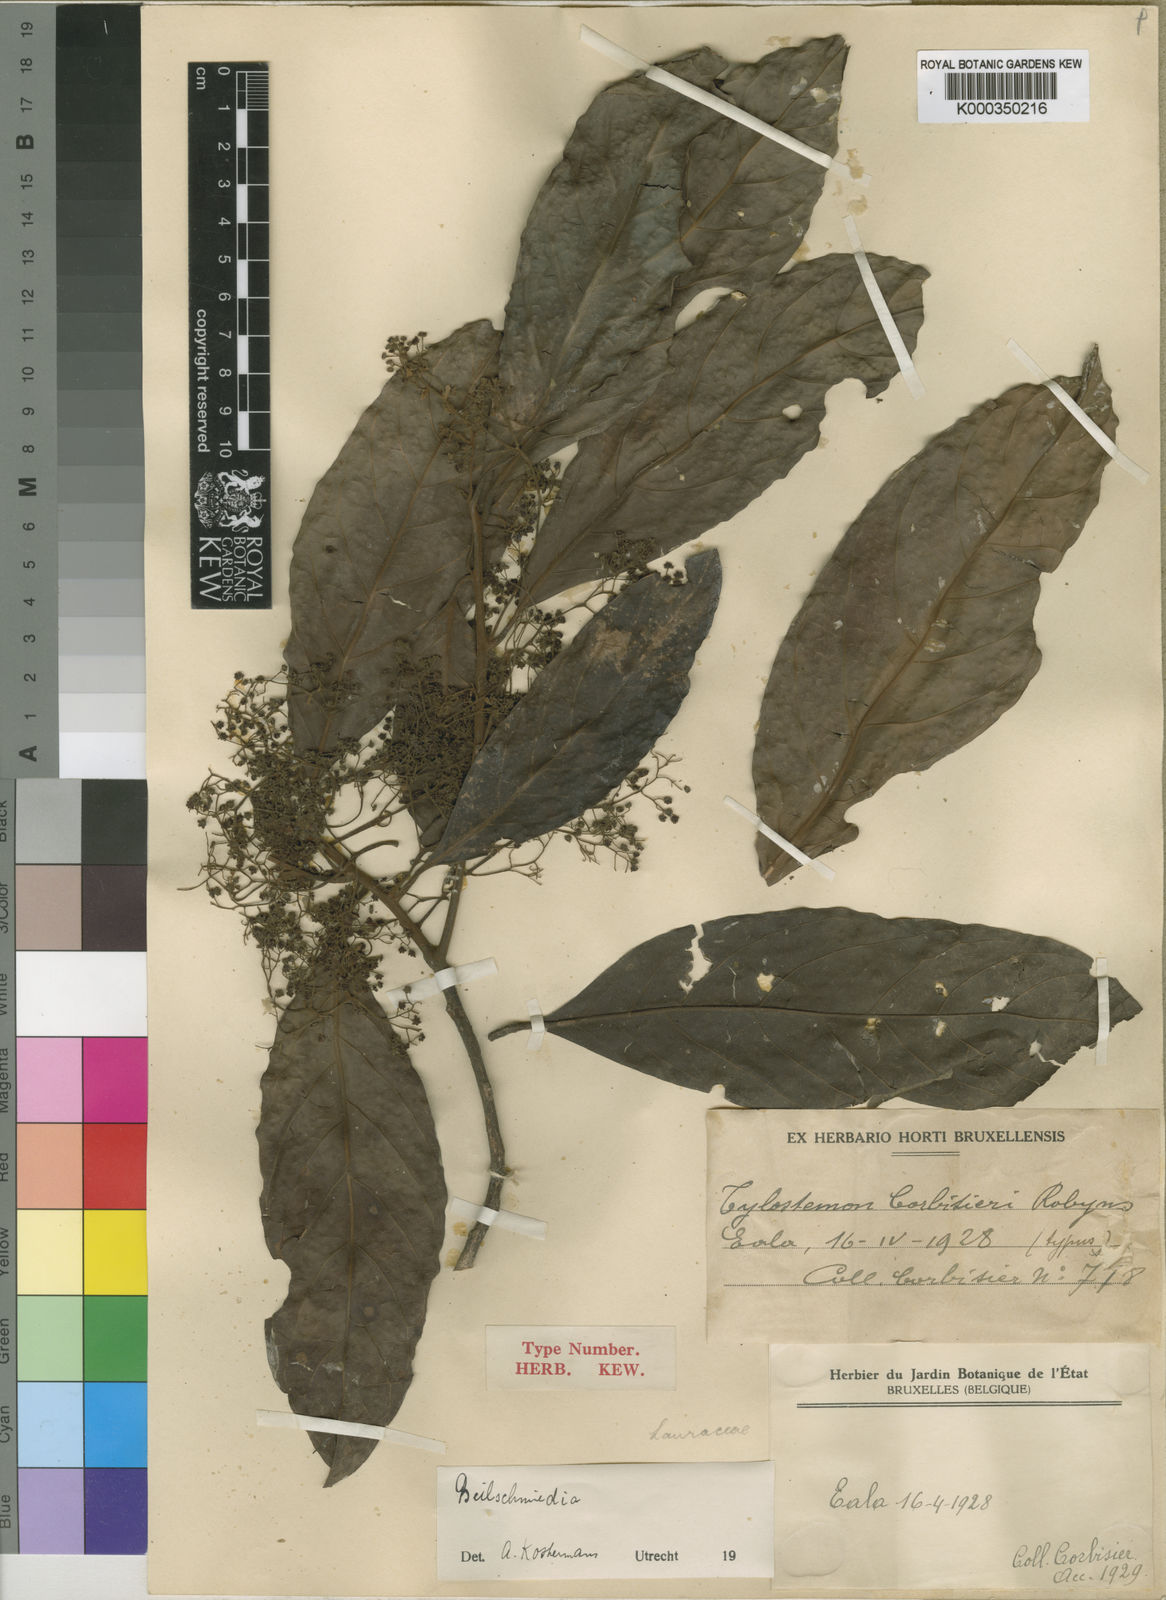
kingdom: Plantae
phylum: Tracheophyta
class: Magnoliopsida
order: Laurales
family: Lauraceae
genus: Beilschmiedia
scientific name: Beilschmiedia corbisieri
